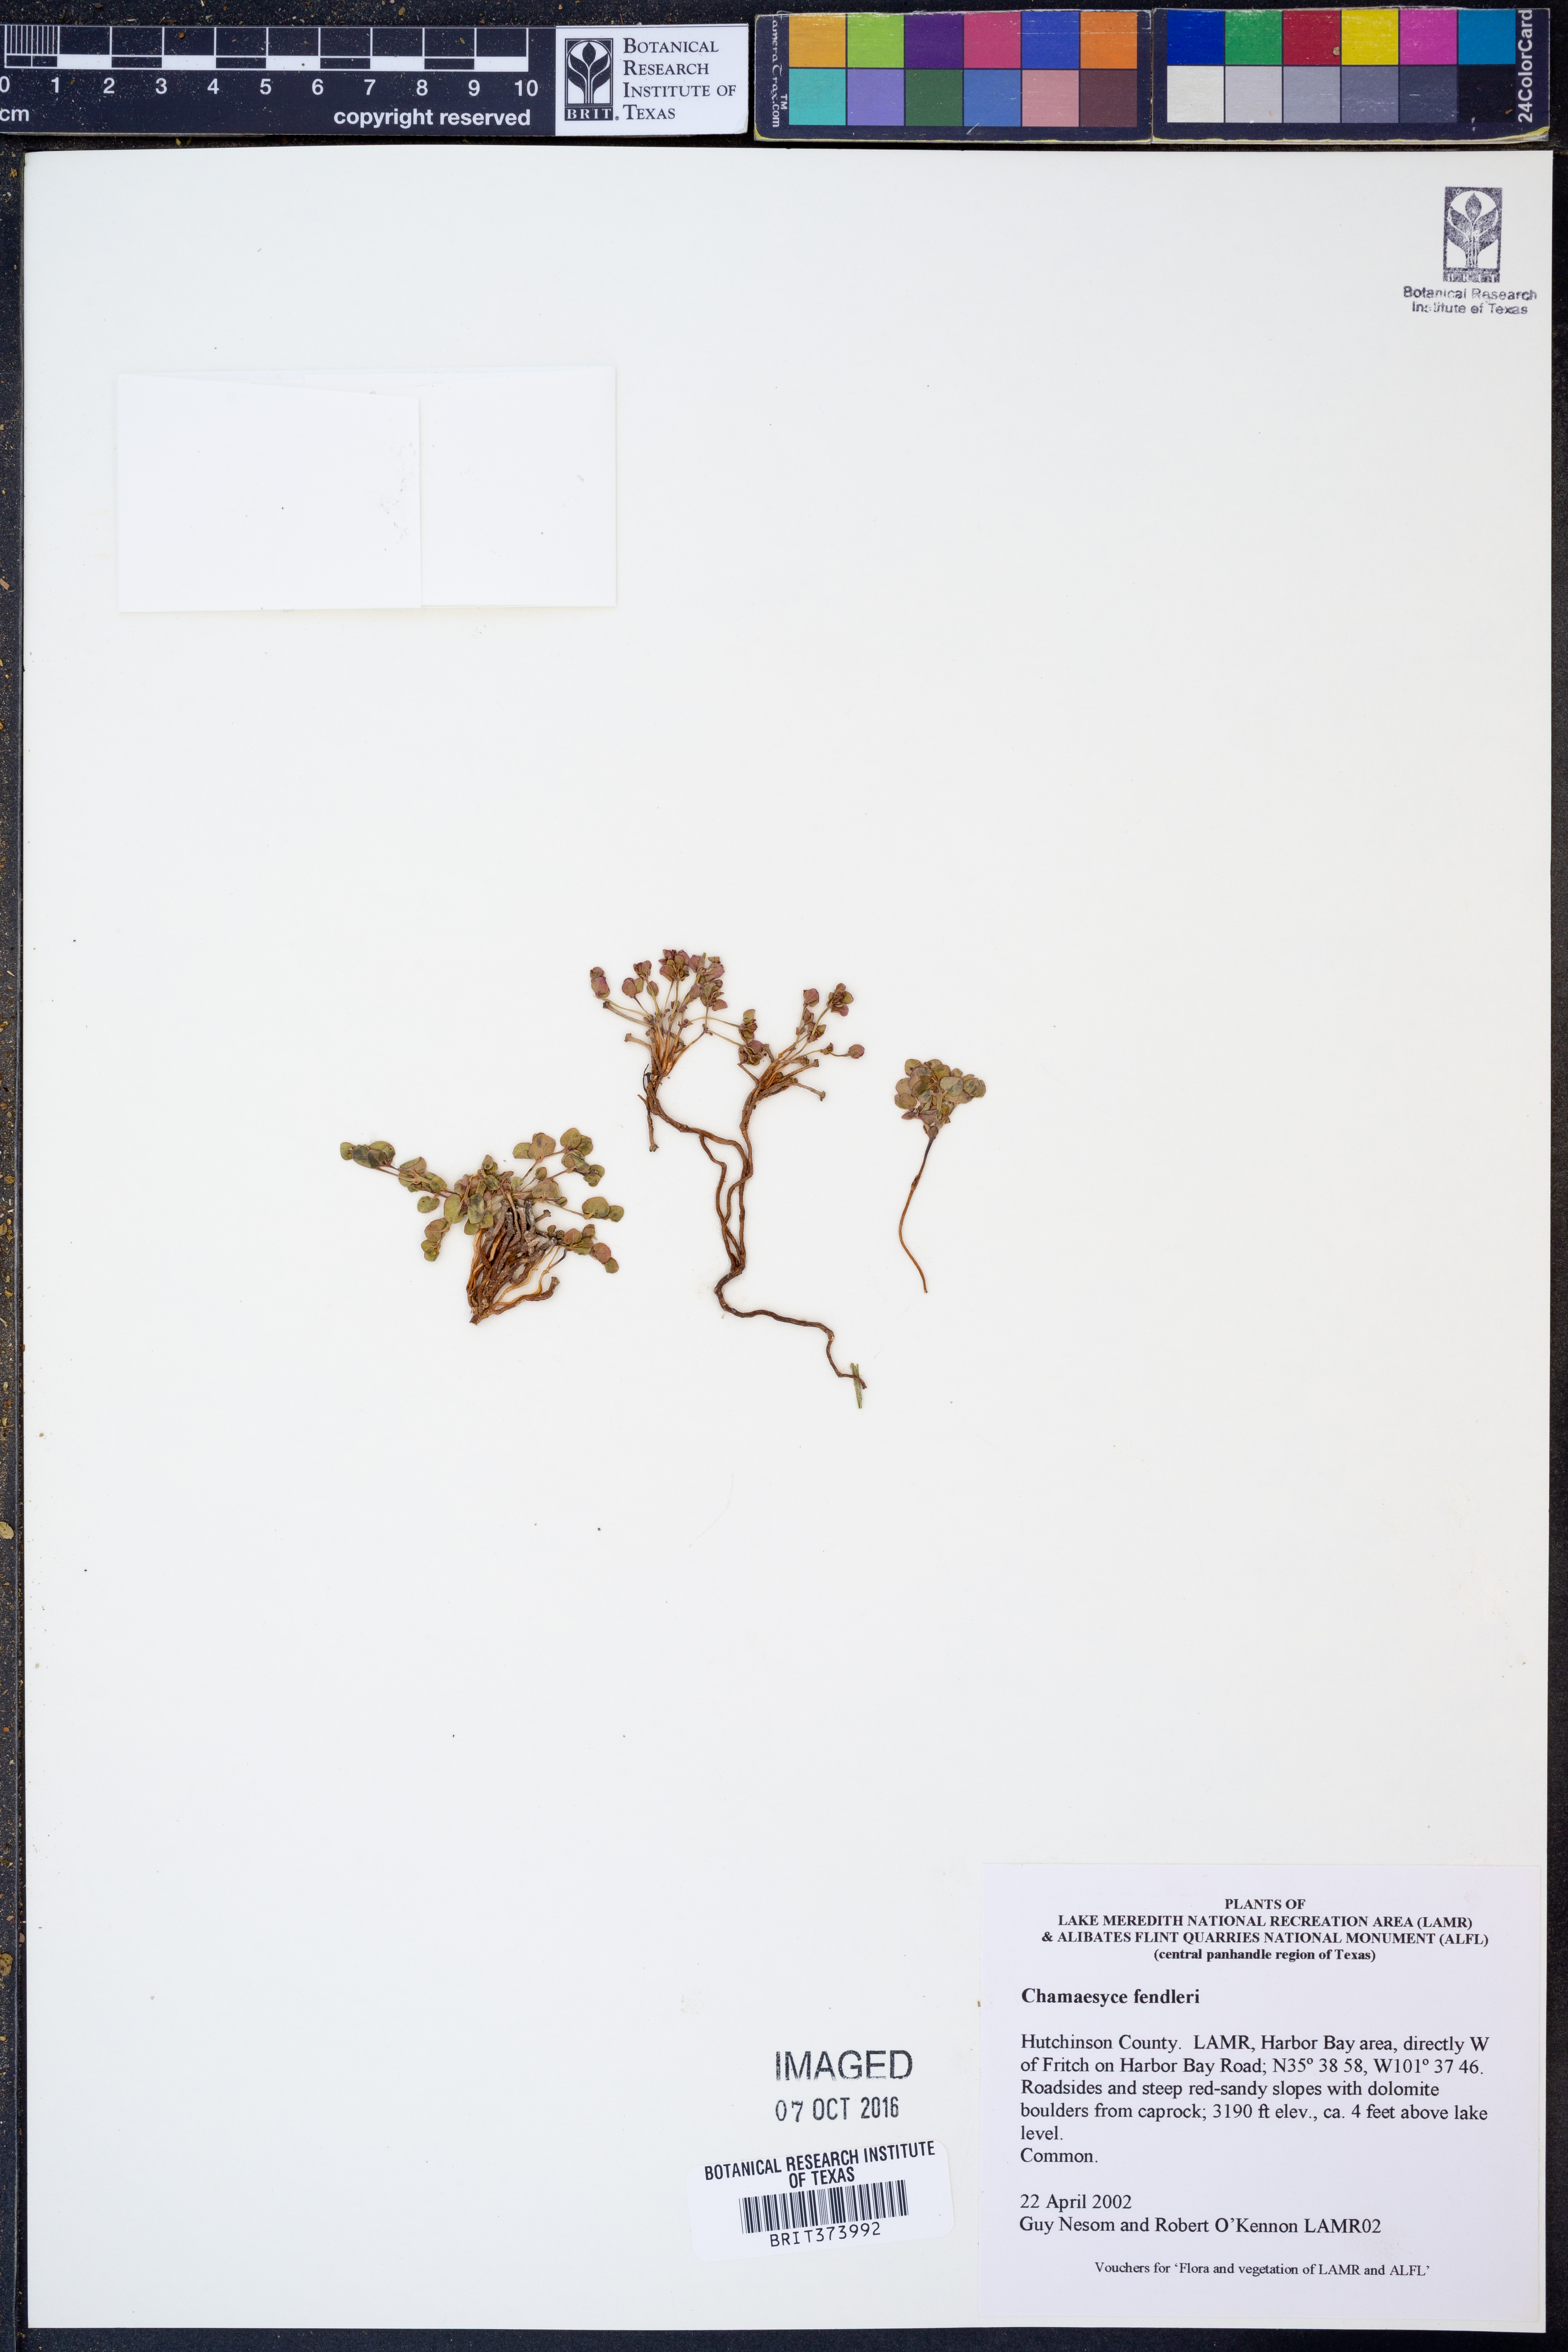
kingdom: Plantae
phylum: Tracheophyta
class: Magnoliopsida
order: Malpighiales
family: Euphorbiaceae
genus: Euphorbia
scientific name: Euphorbia fendleri
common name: Fendler's euphorbia
